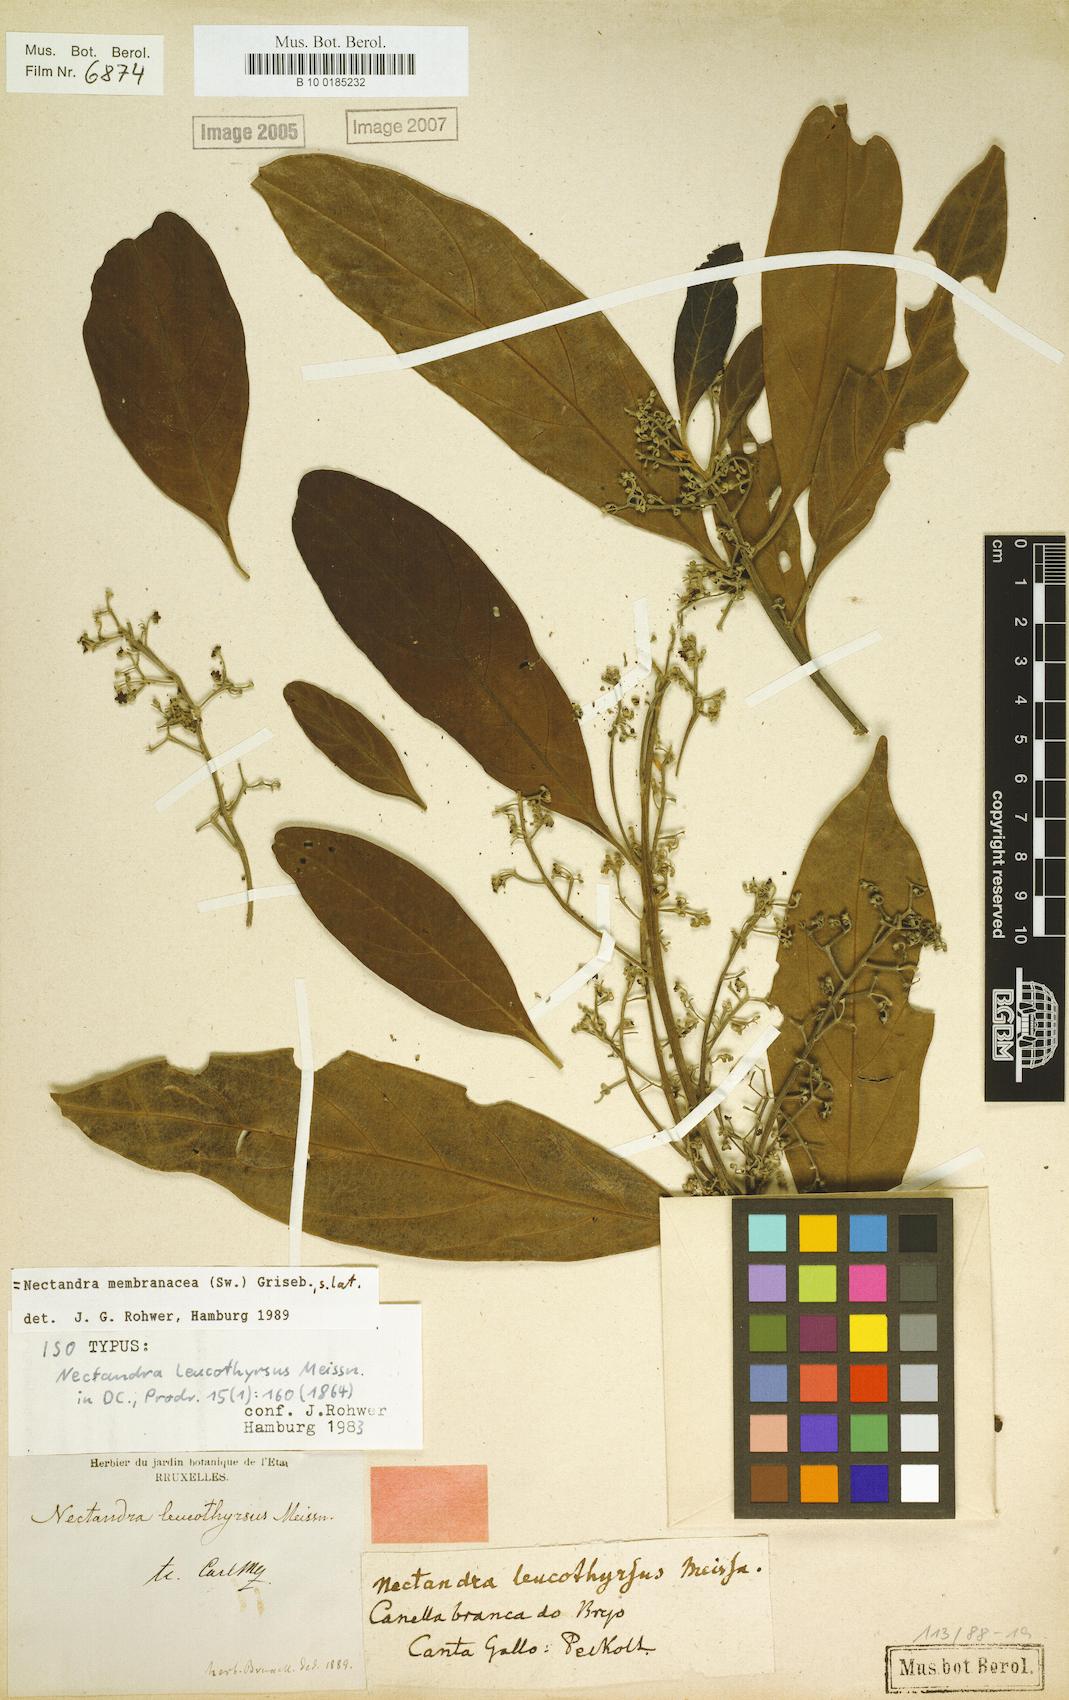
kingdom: Plantae
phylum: Tracheophyta
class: Magnoliopsida
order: Laurales
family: Lauraceae
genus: Nectandra
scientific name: Nectandra membranacea
